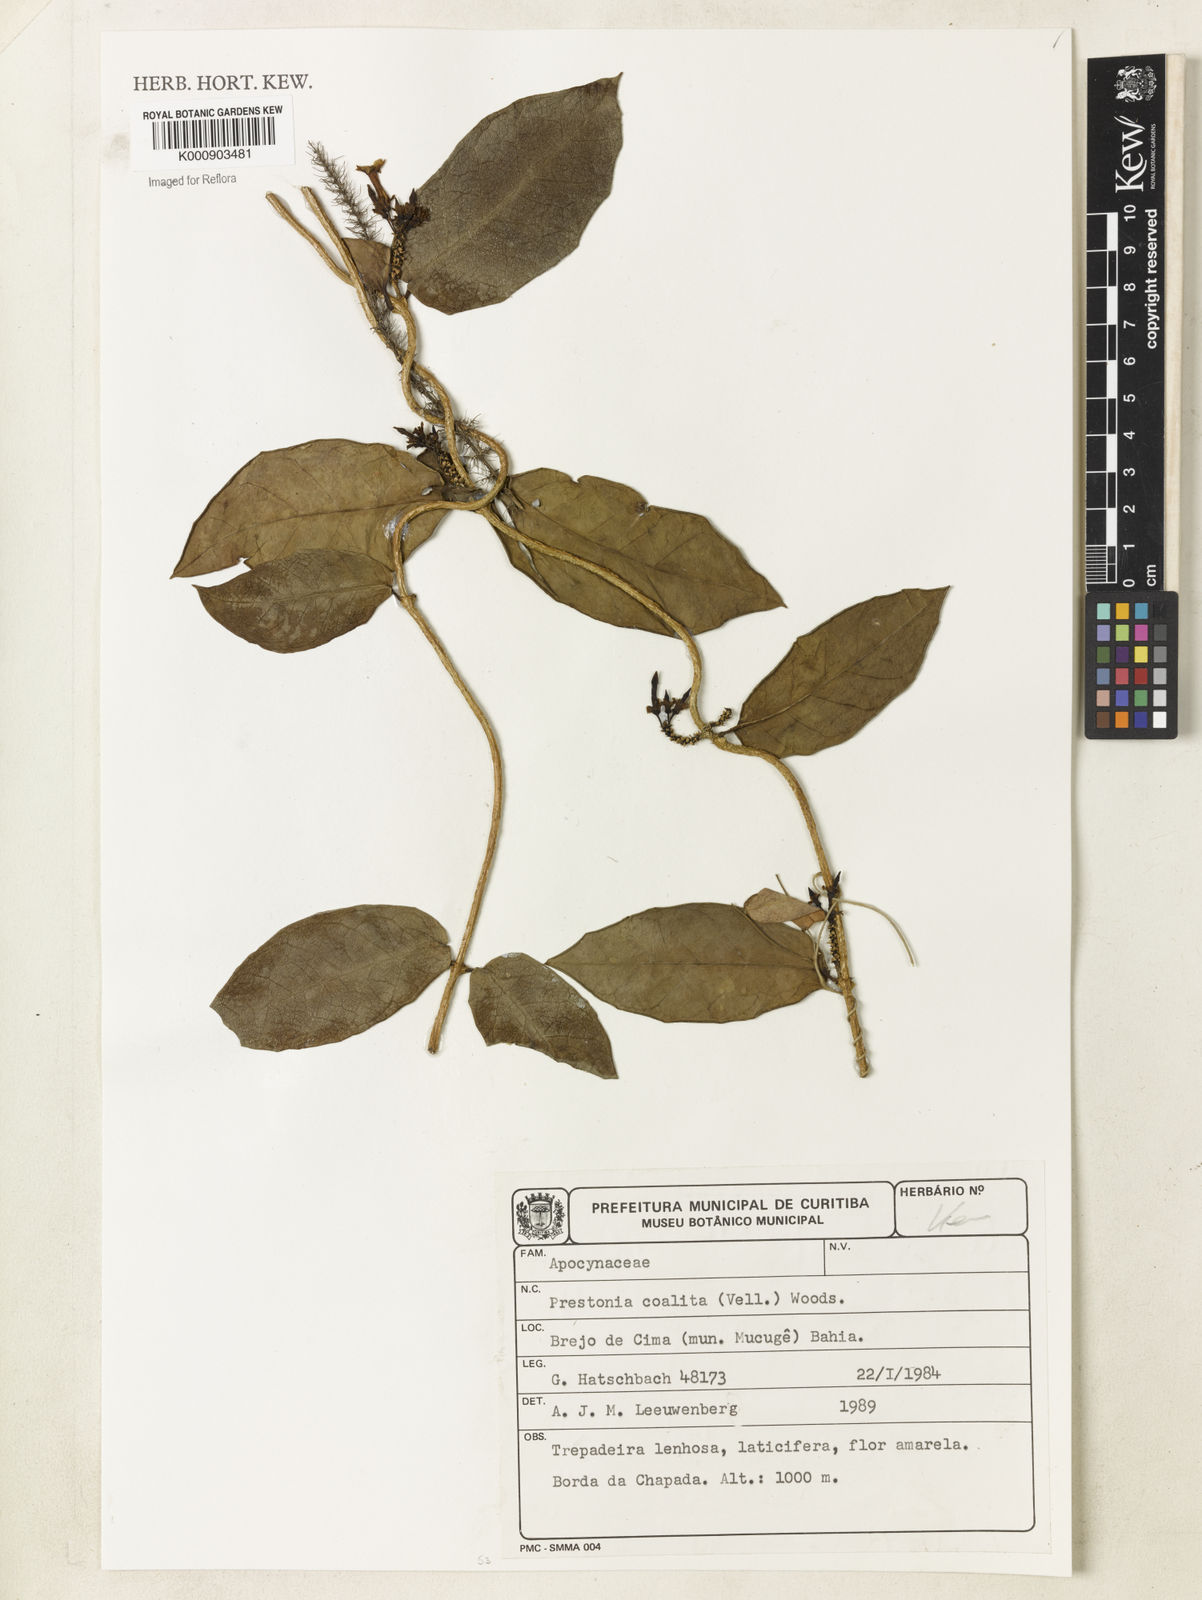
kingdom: Plantae
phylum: Tracheophyta
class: Magnoliopsida
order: Gentianales
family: Apocynaceae
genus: Prestonia
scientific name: Prestonia coalita
